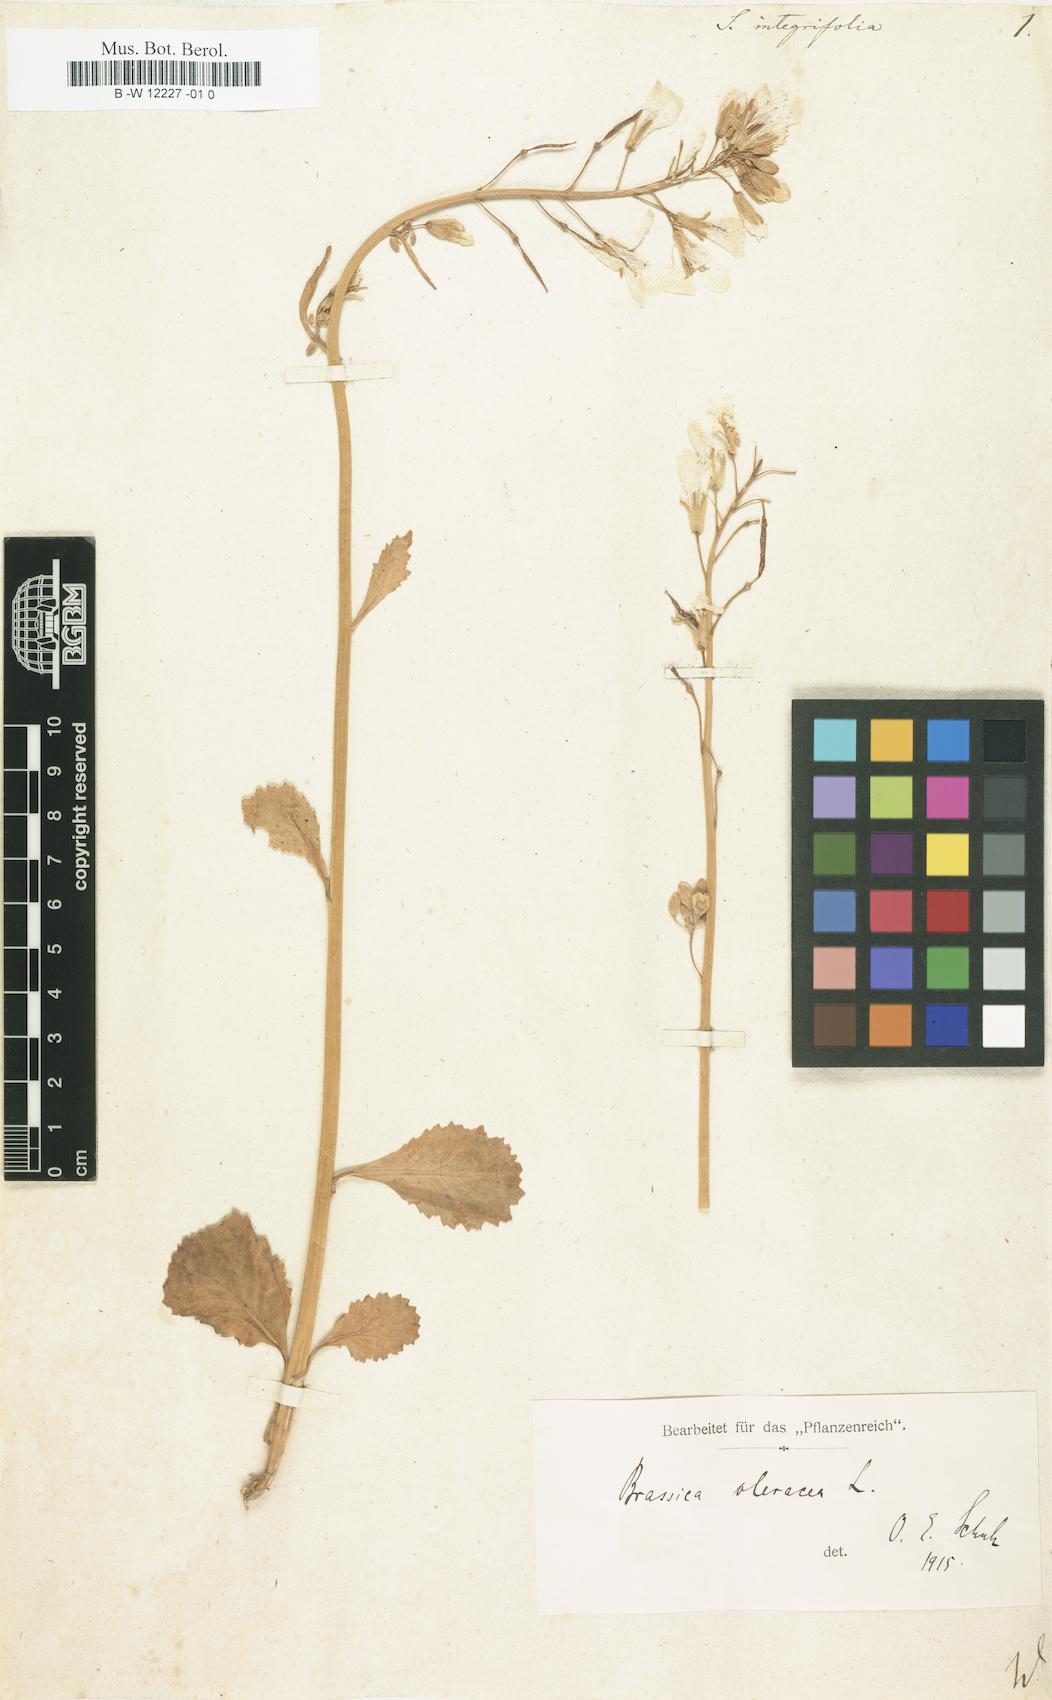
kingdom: Plantae
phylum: Tracheophyta
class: Magnoliopsida
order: Brassicales
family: Brassicaceae
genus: Sinapis
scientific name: Sinapis integrifolia
